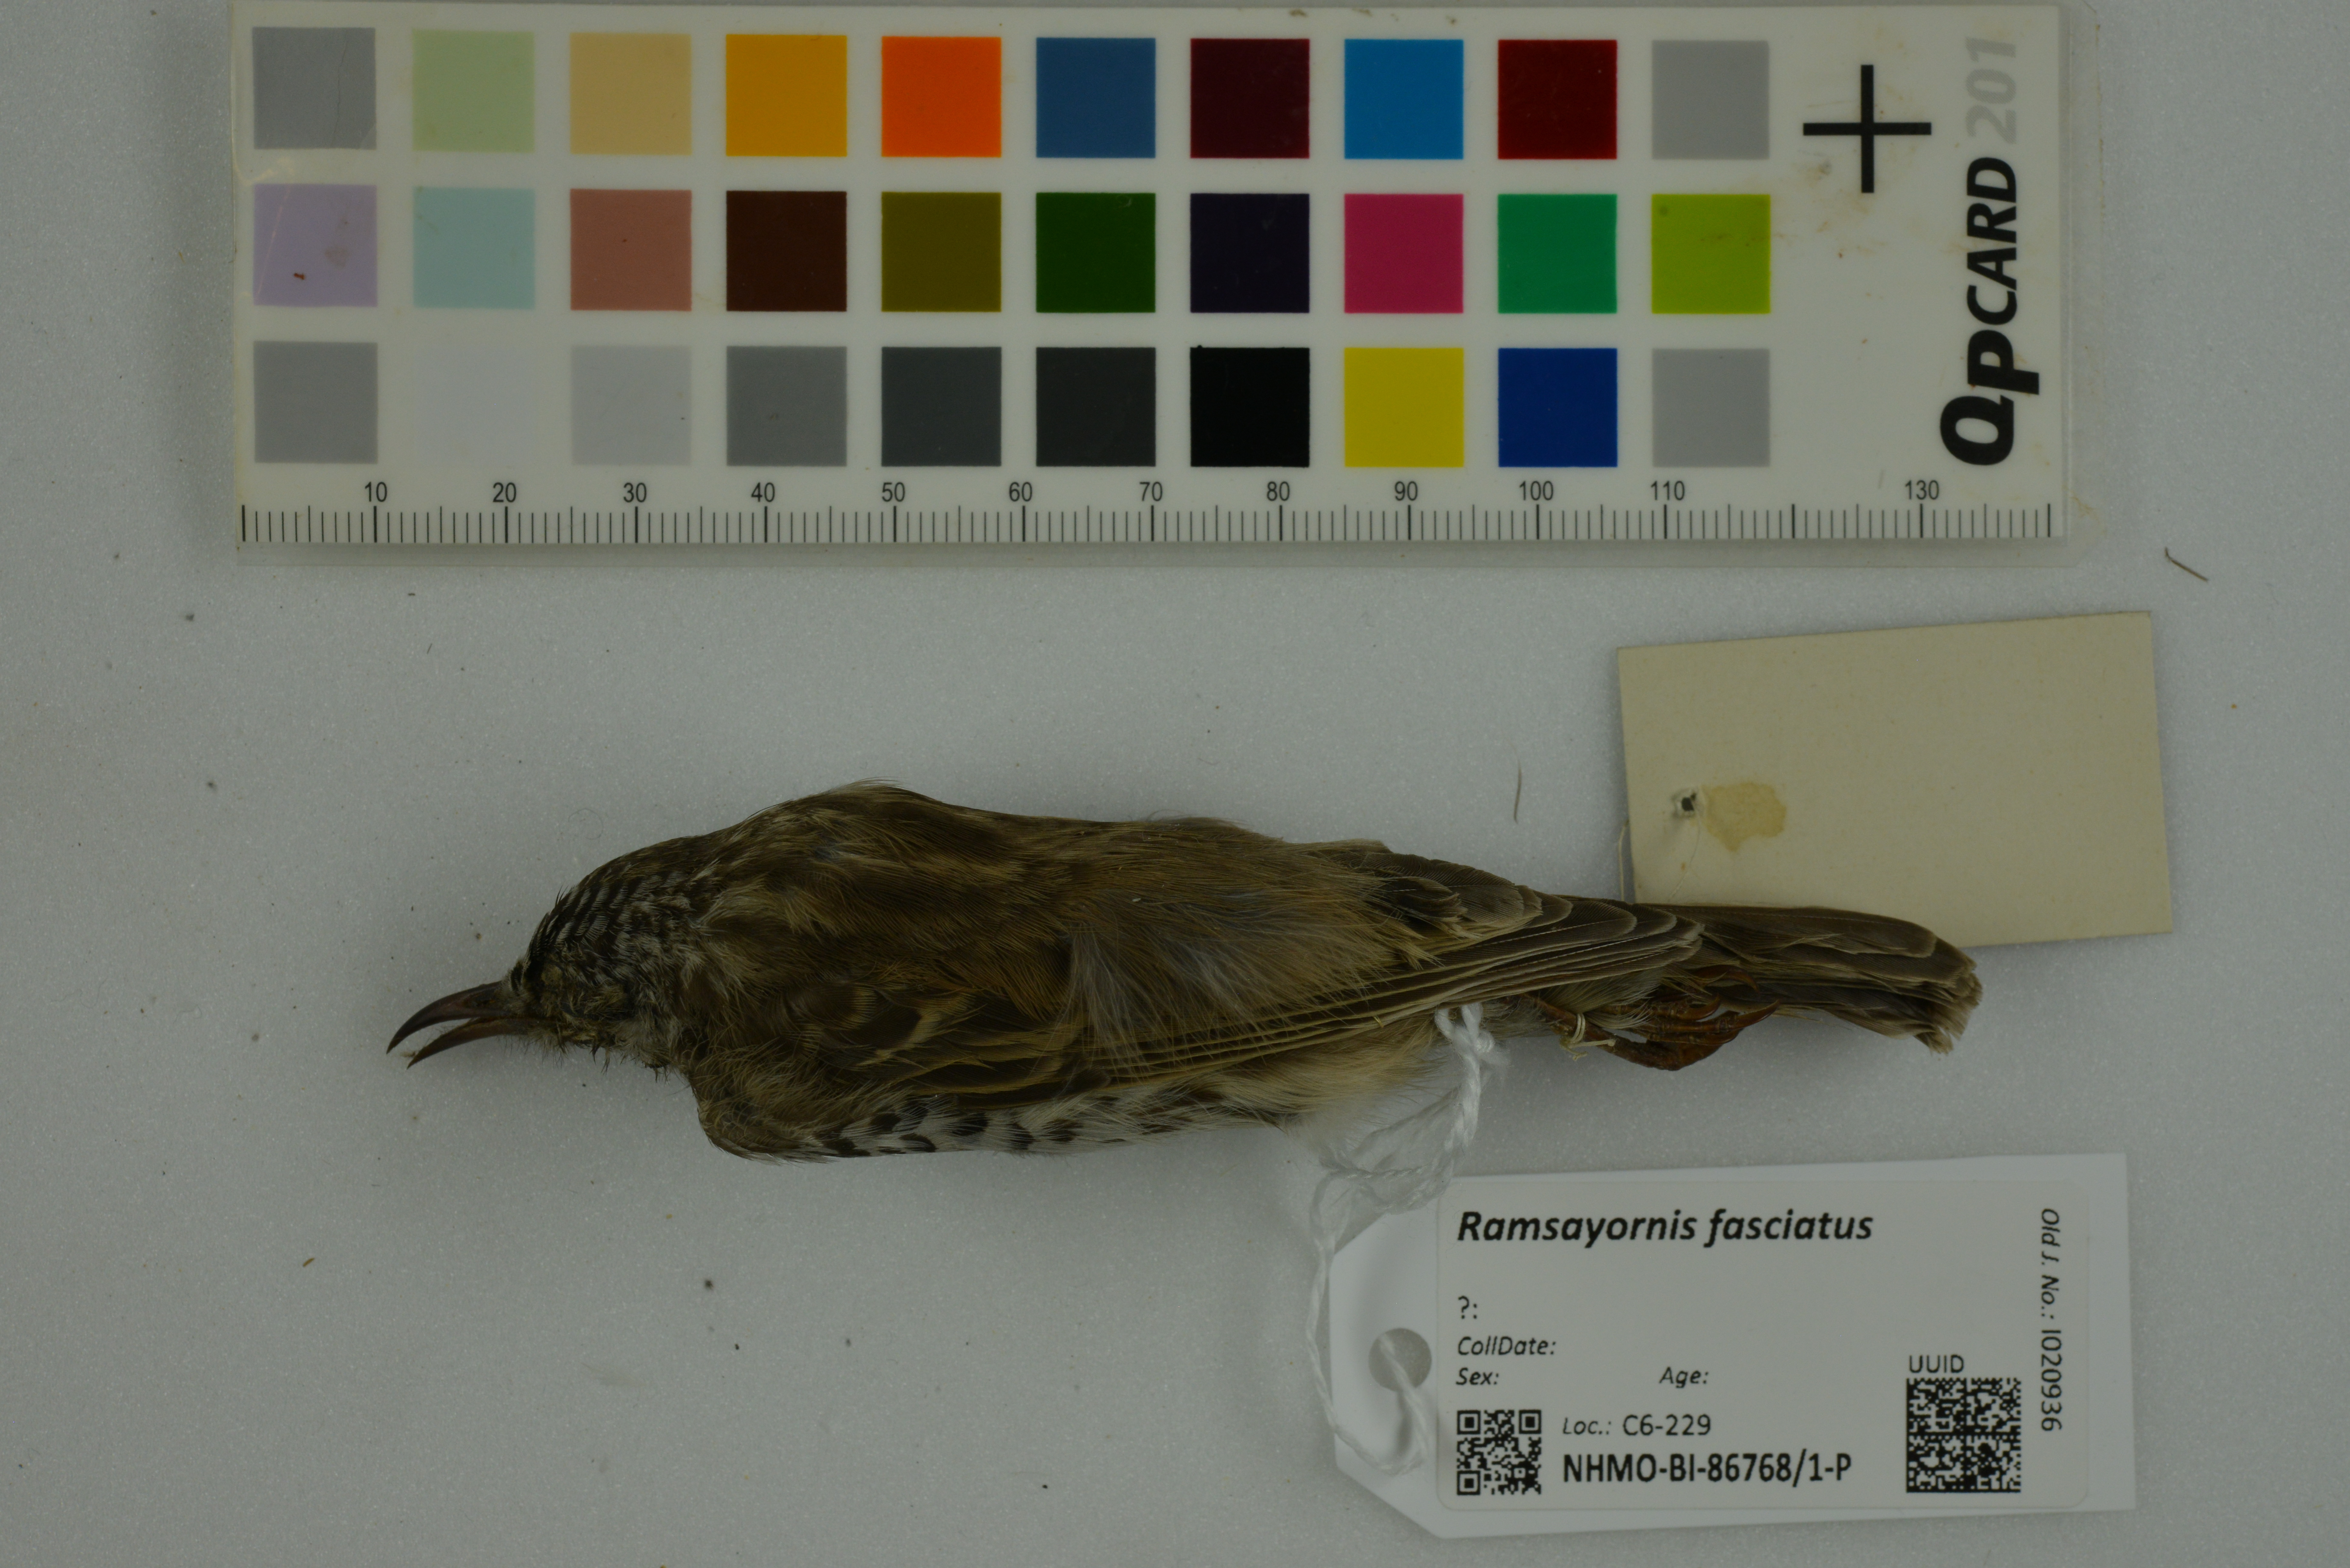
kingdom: Animalia
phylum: Chordata
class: Aves
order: Passeriformes
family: Meliphagidae
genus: Ramsayornis
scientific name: Ramsayornis fasciatus
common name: Bar-breasted honeyeater
